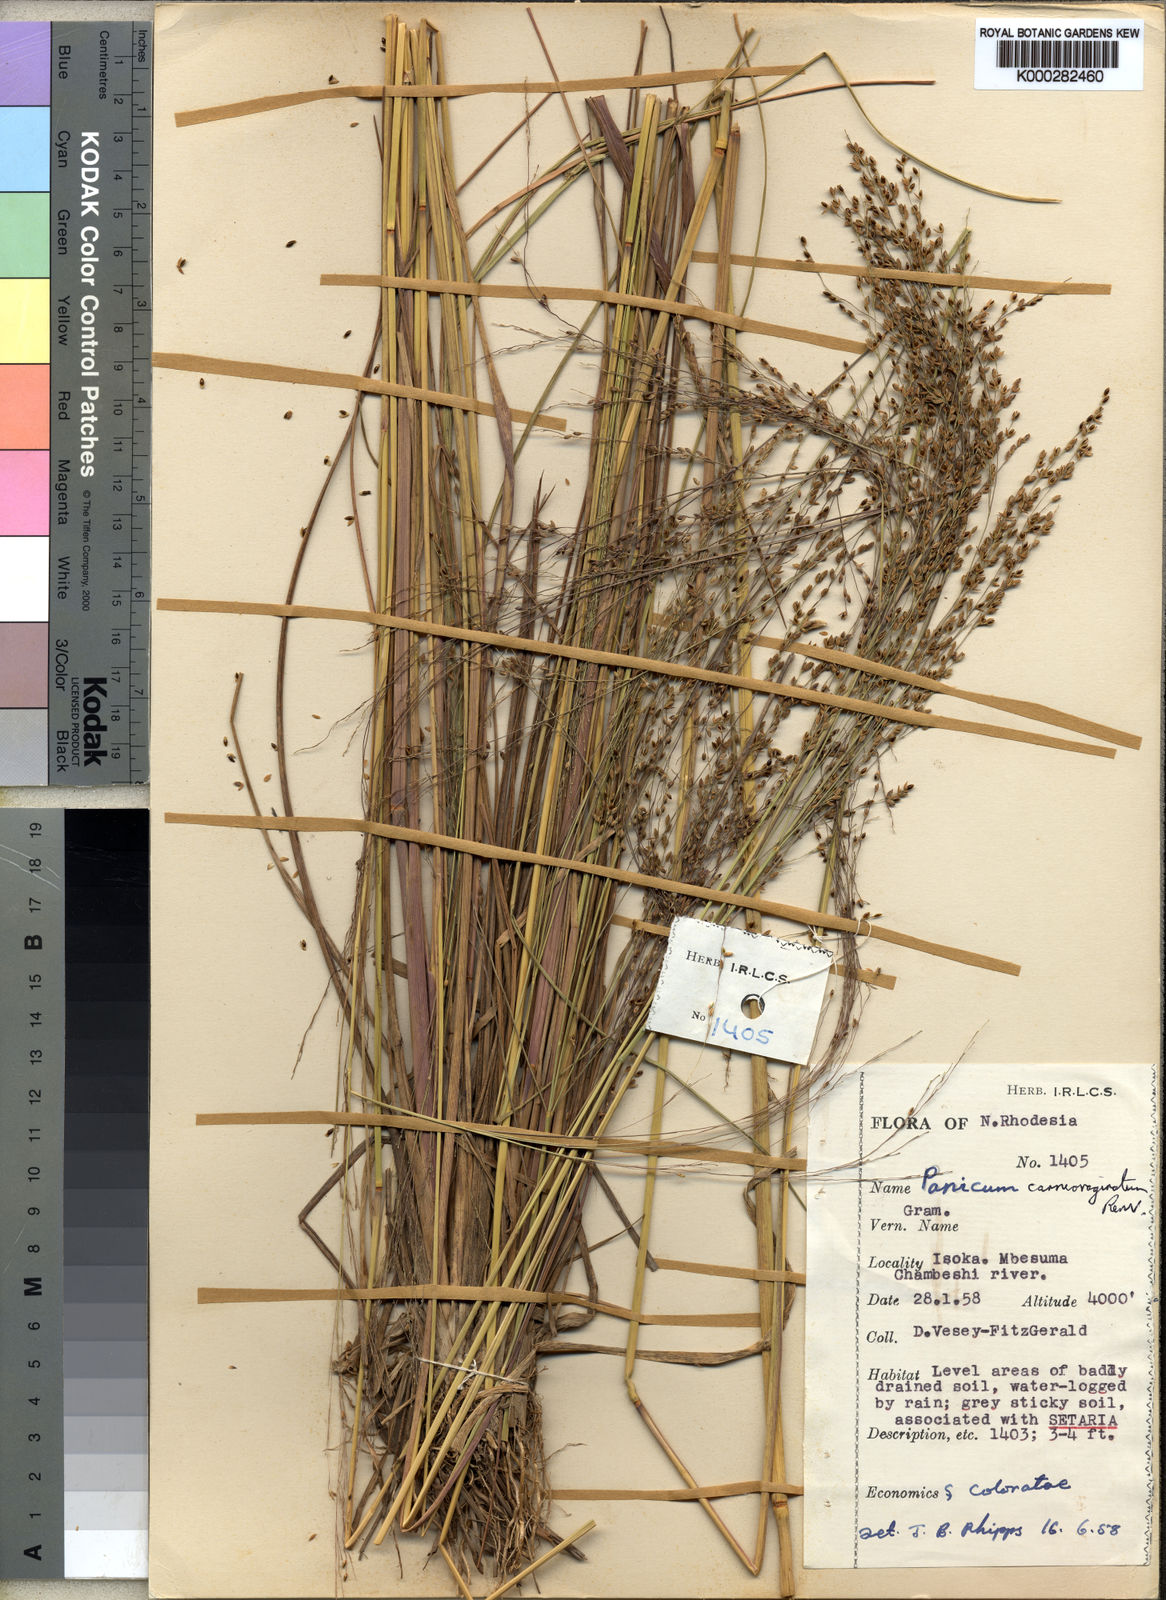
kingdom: Plantae
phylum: Tracheophyta
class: Liliopsida
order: Poales
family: Poaceae
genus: Panicum
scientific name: Panicum carneovaginatum
